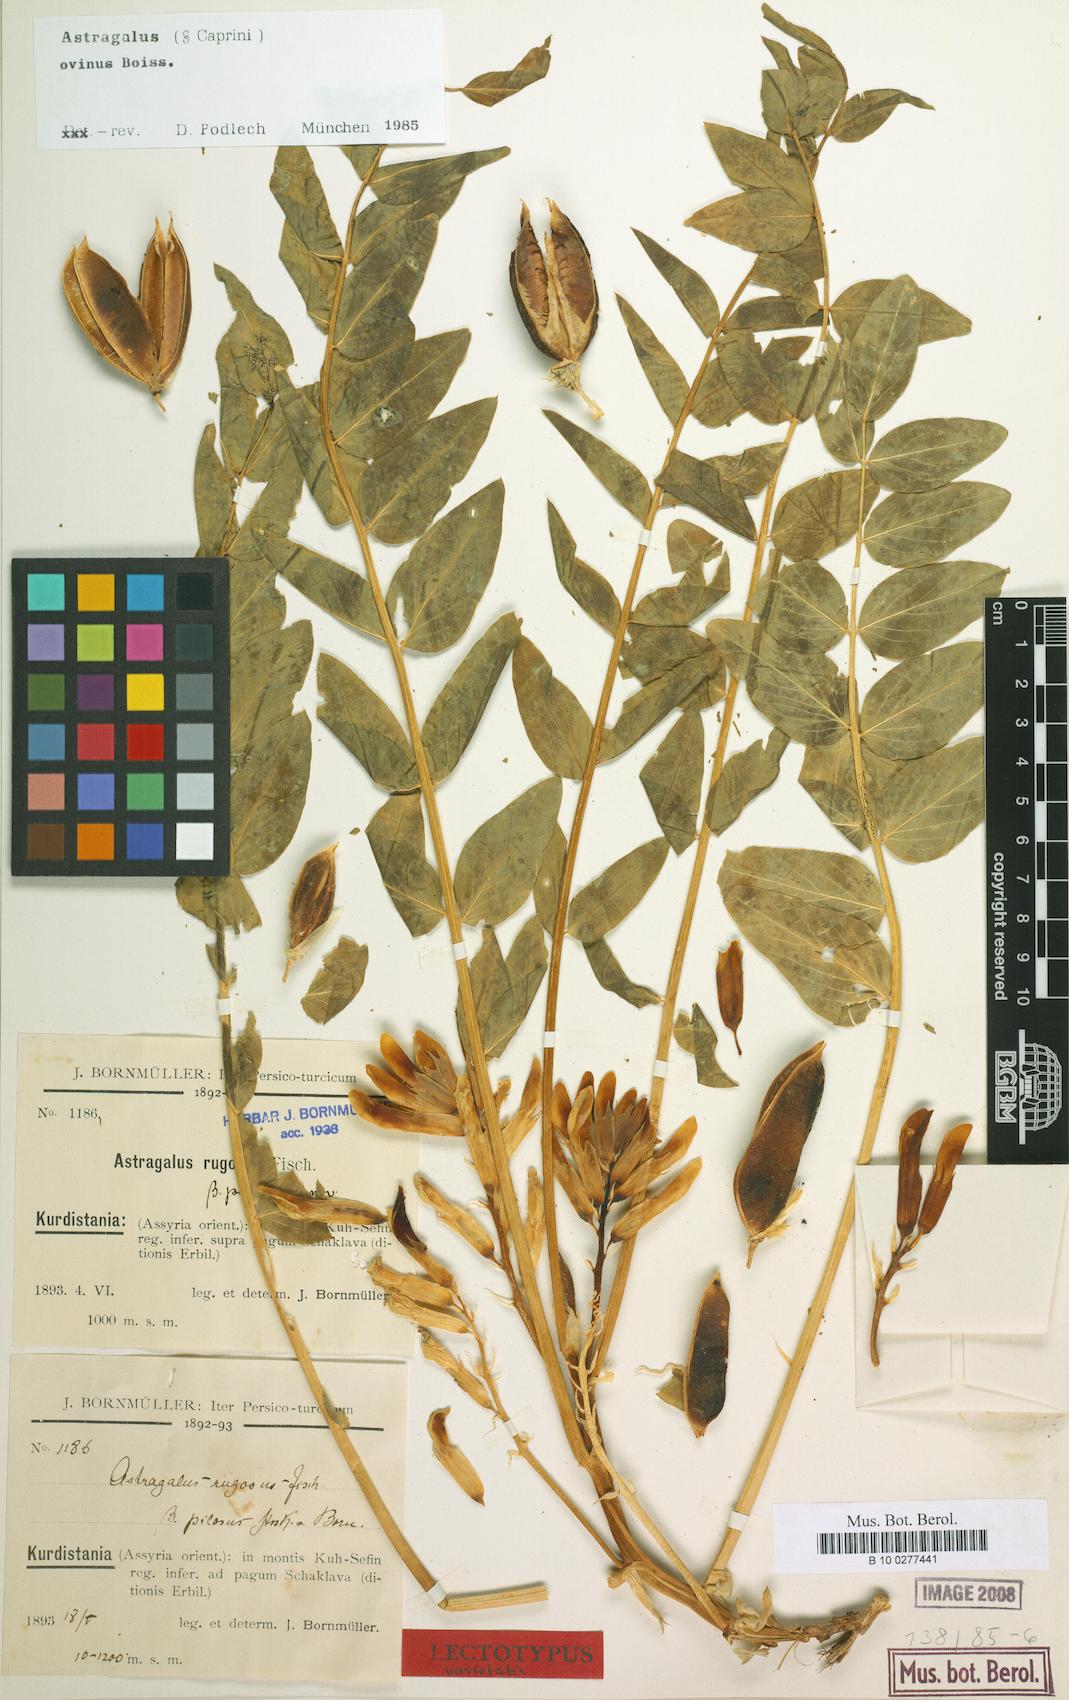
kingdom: Plantae
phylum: Tracheophyta
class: Magnoliopsida
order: Fabales
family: Fabaceae
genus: Astragalus
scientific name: Astragalus ovinus
